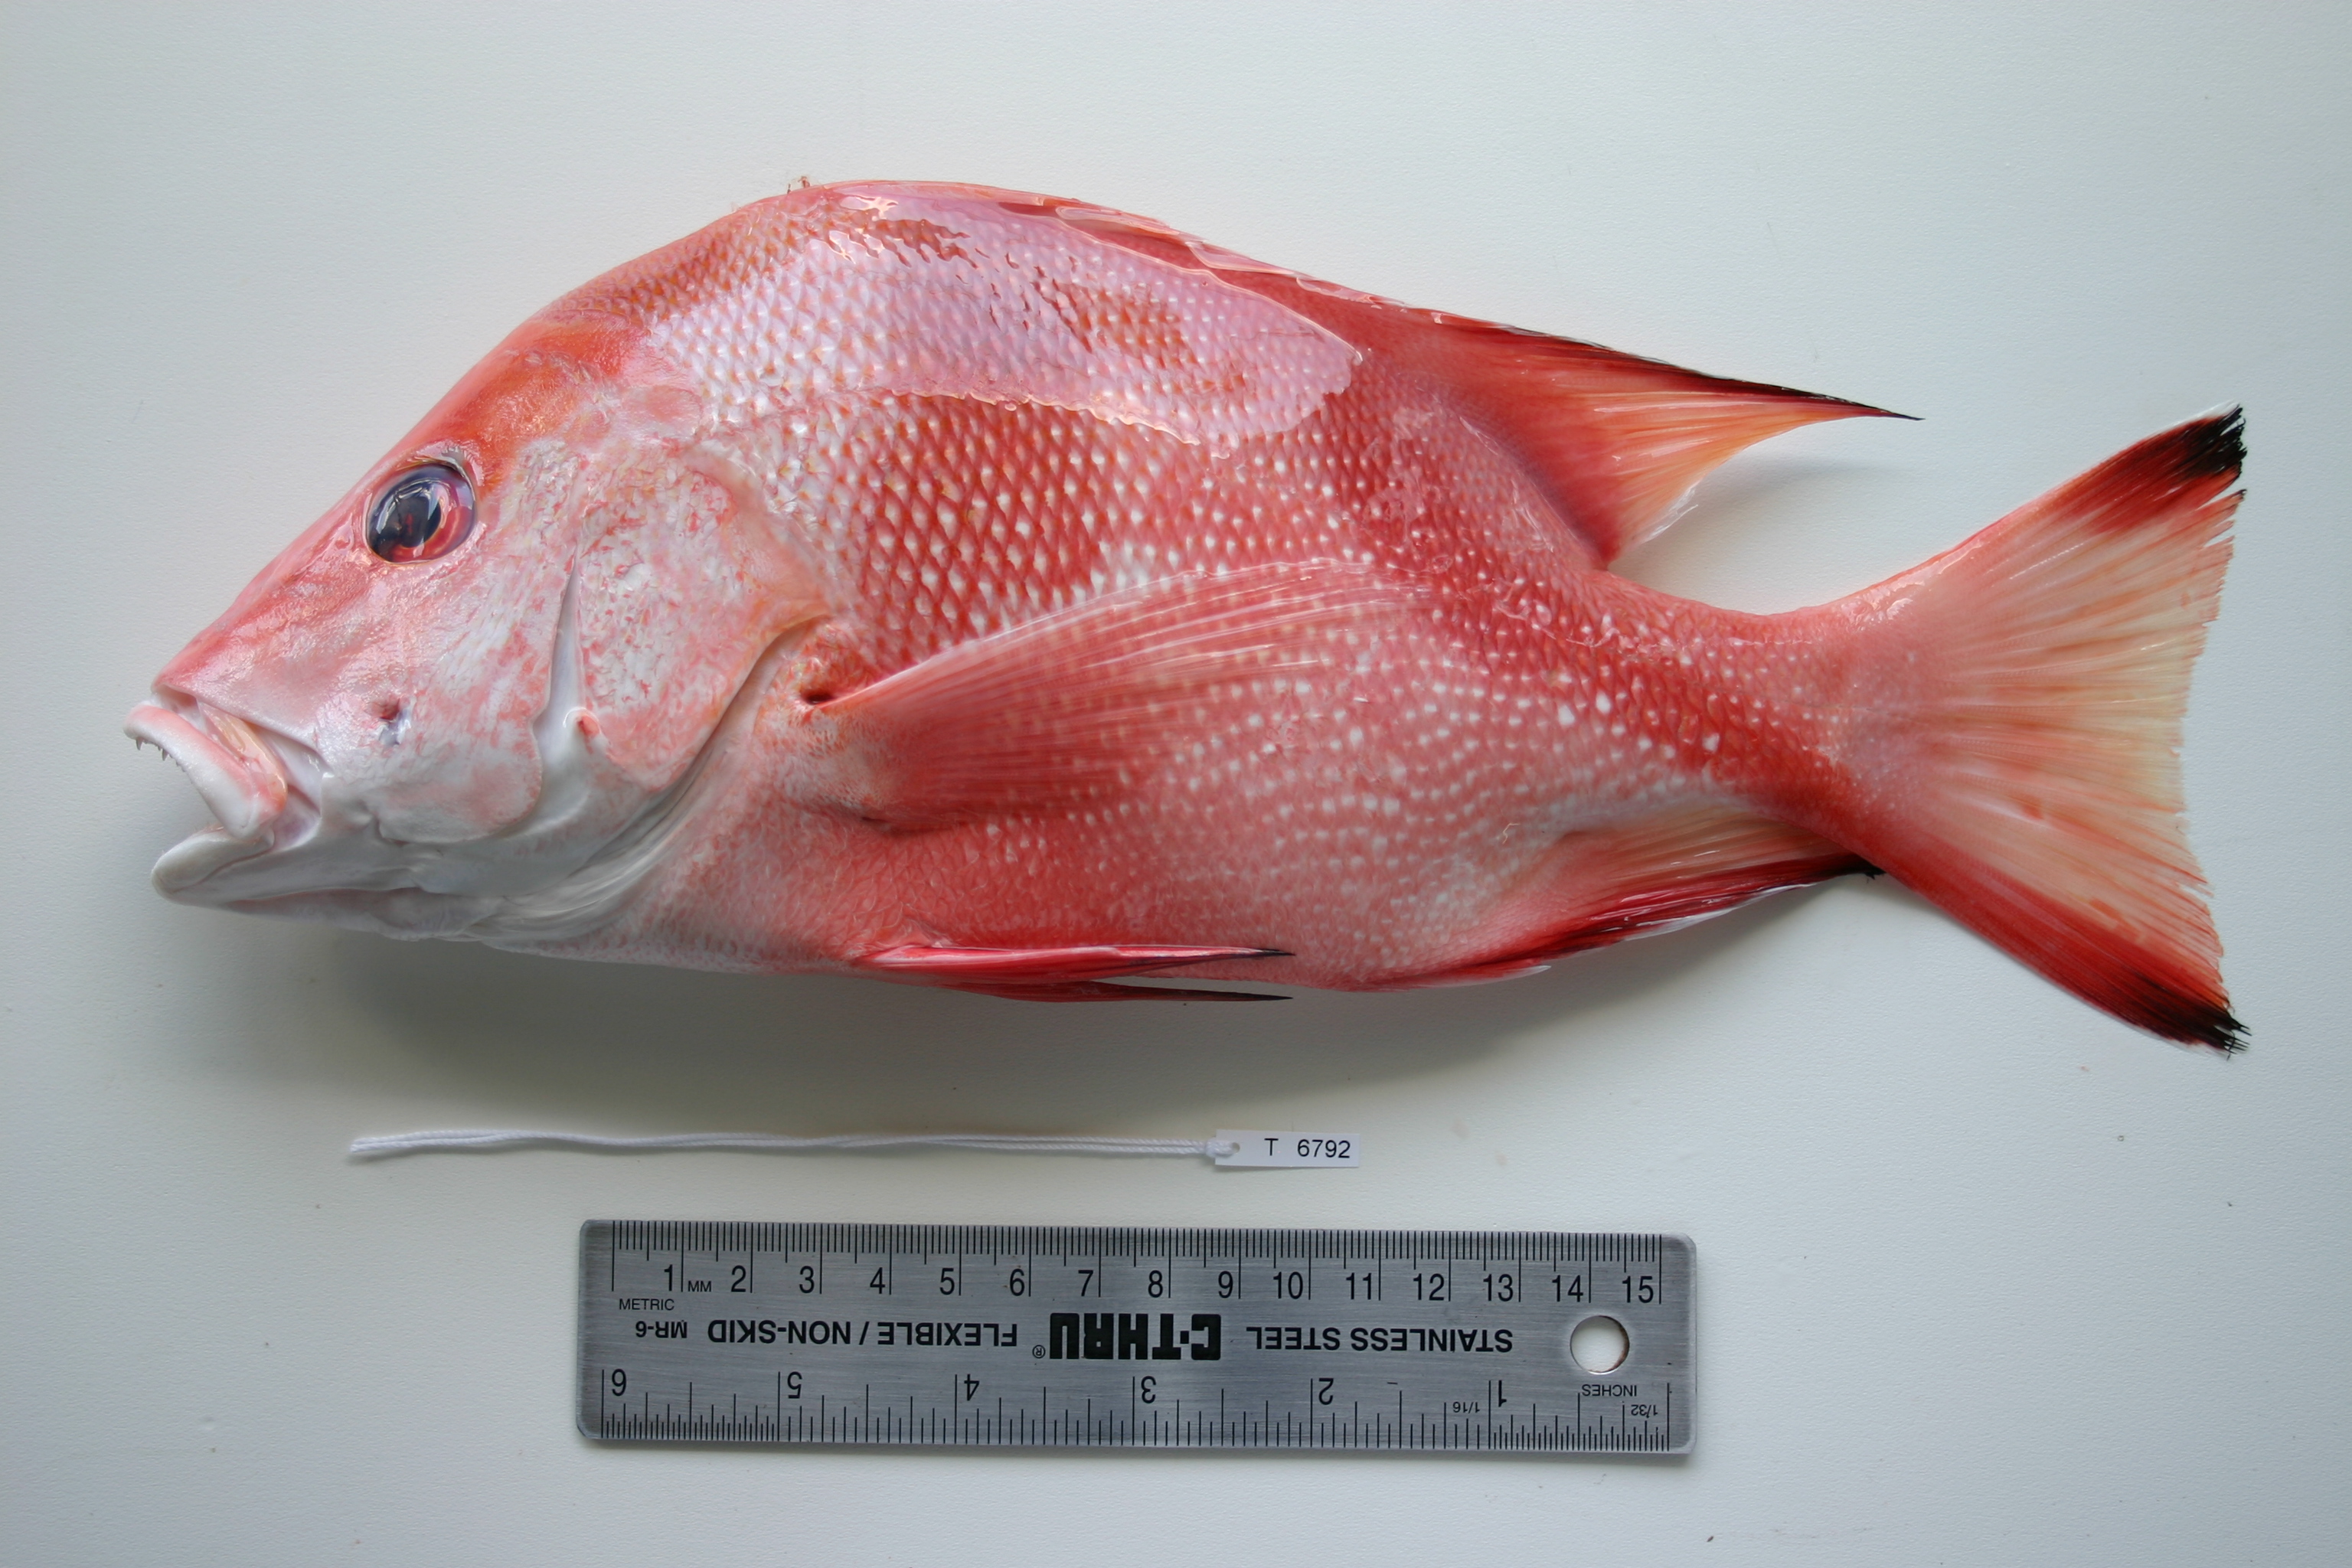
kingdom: Animalia
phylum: Chordata
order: Perciformes
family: Lutjanidae
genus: Lutjanus
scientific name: Lutjanus sebae
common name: Emperor red snapper
